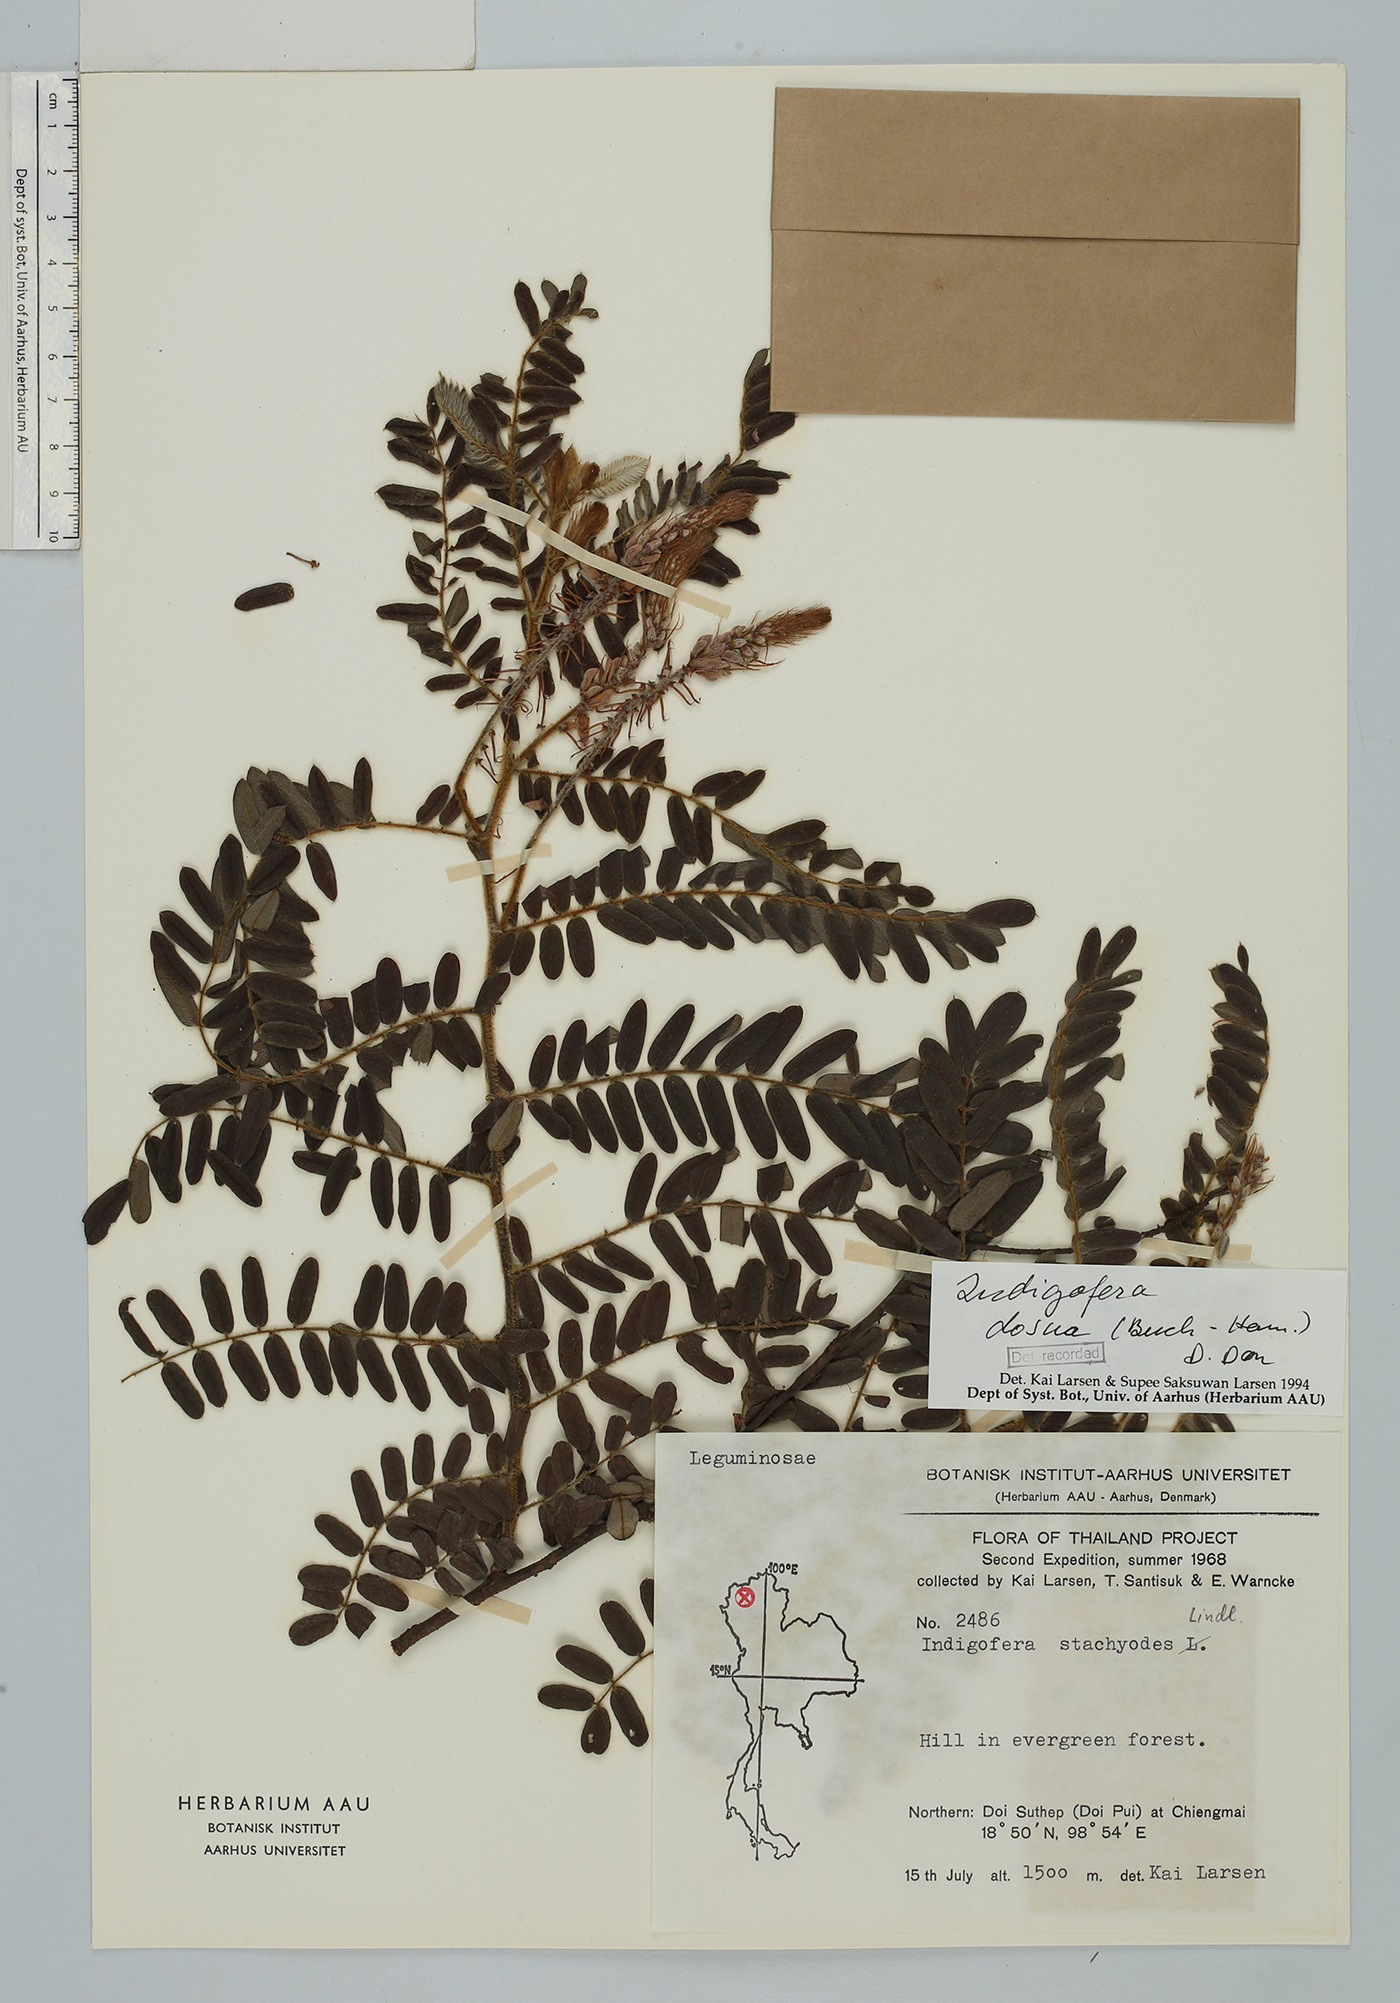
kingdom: Plantae
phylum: Tracheophyta
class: Magnoliopsida
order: Fabales
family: Fabaceae
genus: Indigofera
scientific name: Indigofera dosua
